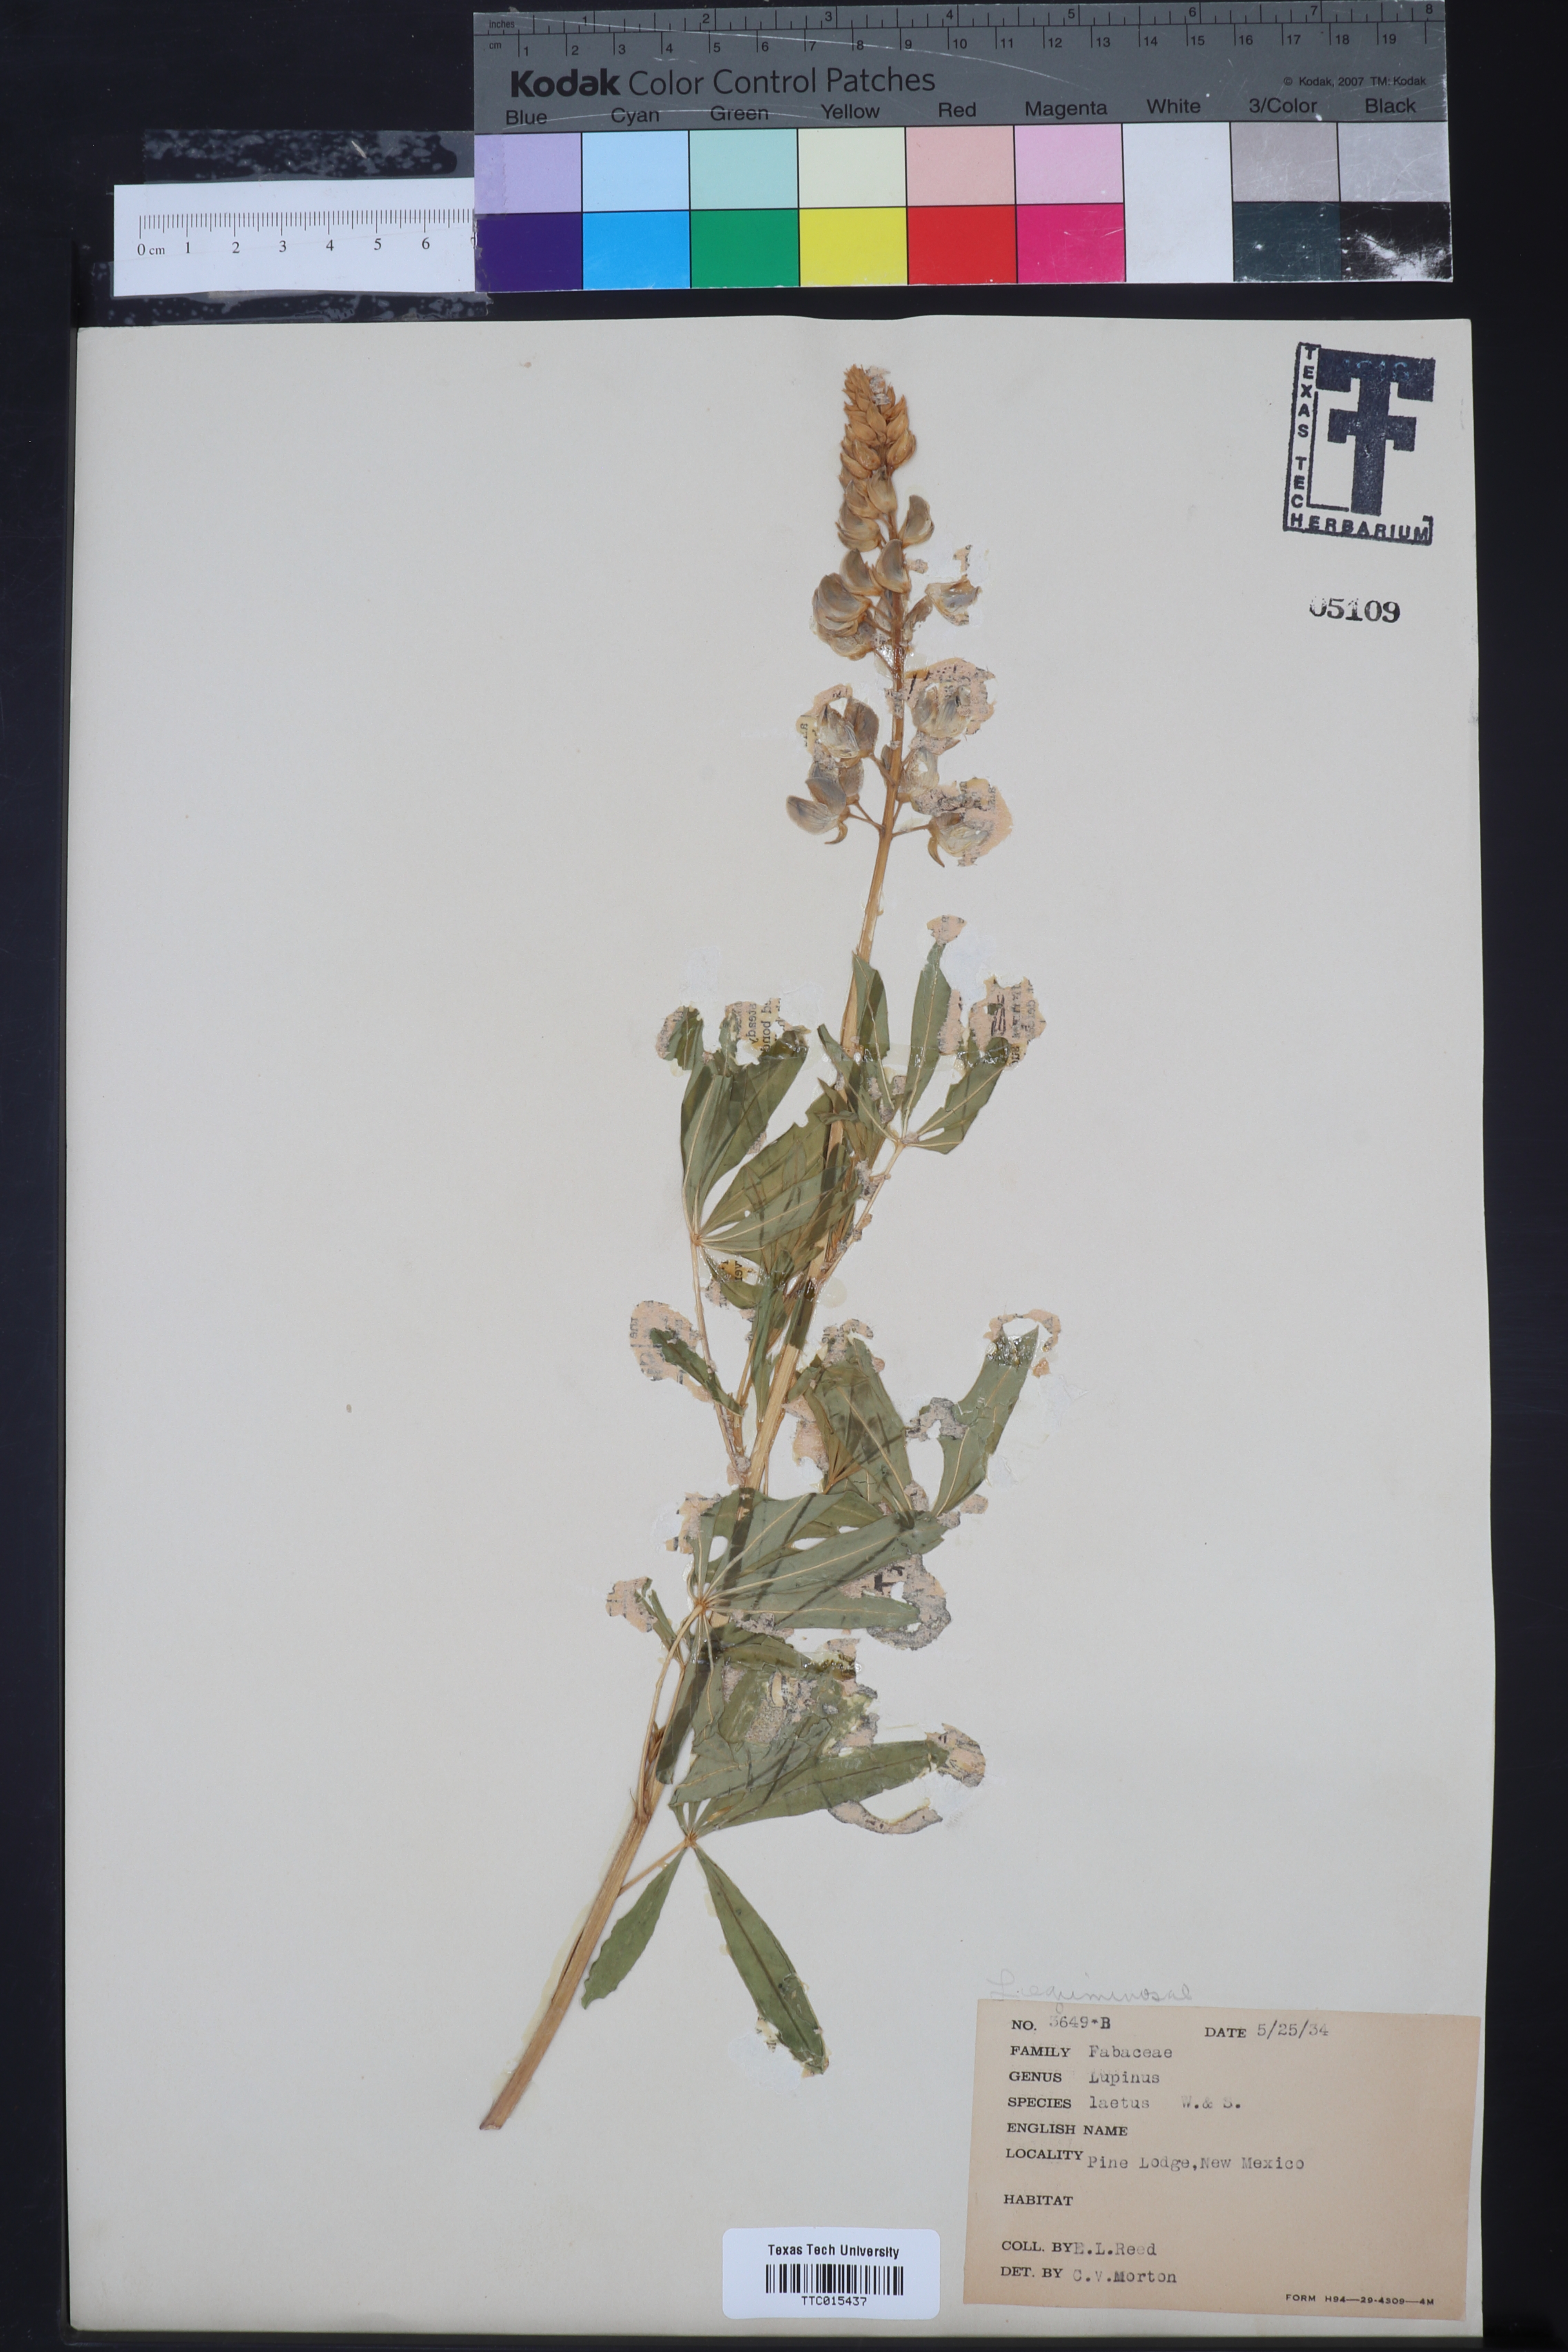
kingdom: Plantae
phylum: Tracheophyta
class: Magnoliopsida
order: Fabales
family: Fabaceae
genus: Lupinus
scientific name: Lupinus latifolius
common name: Broad-leaved lupine
